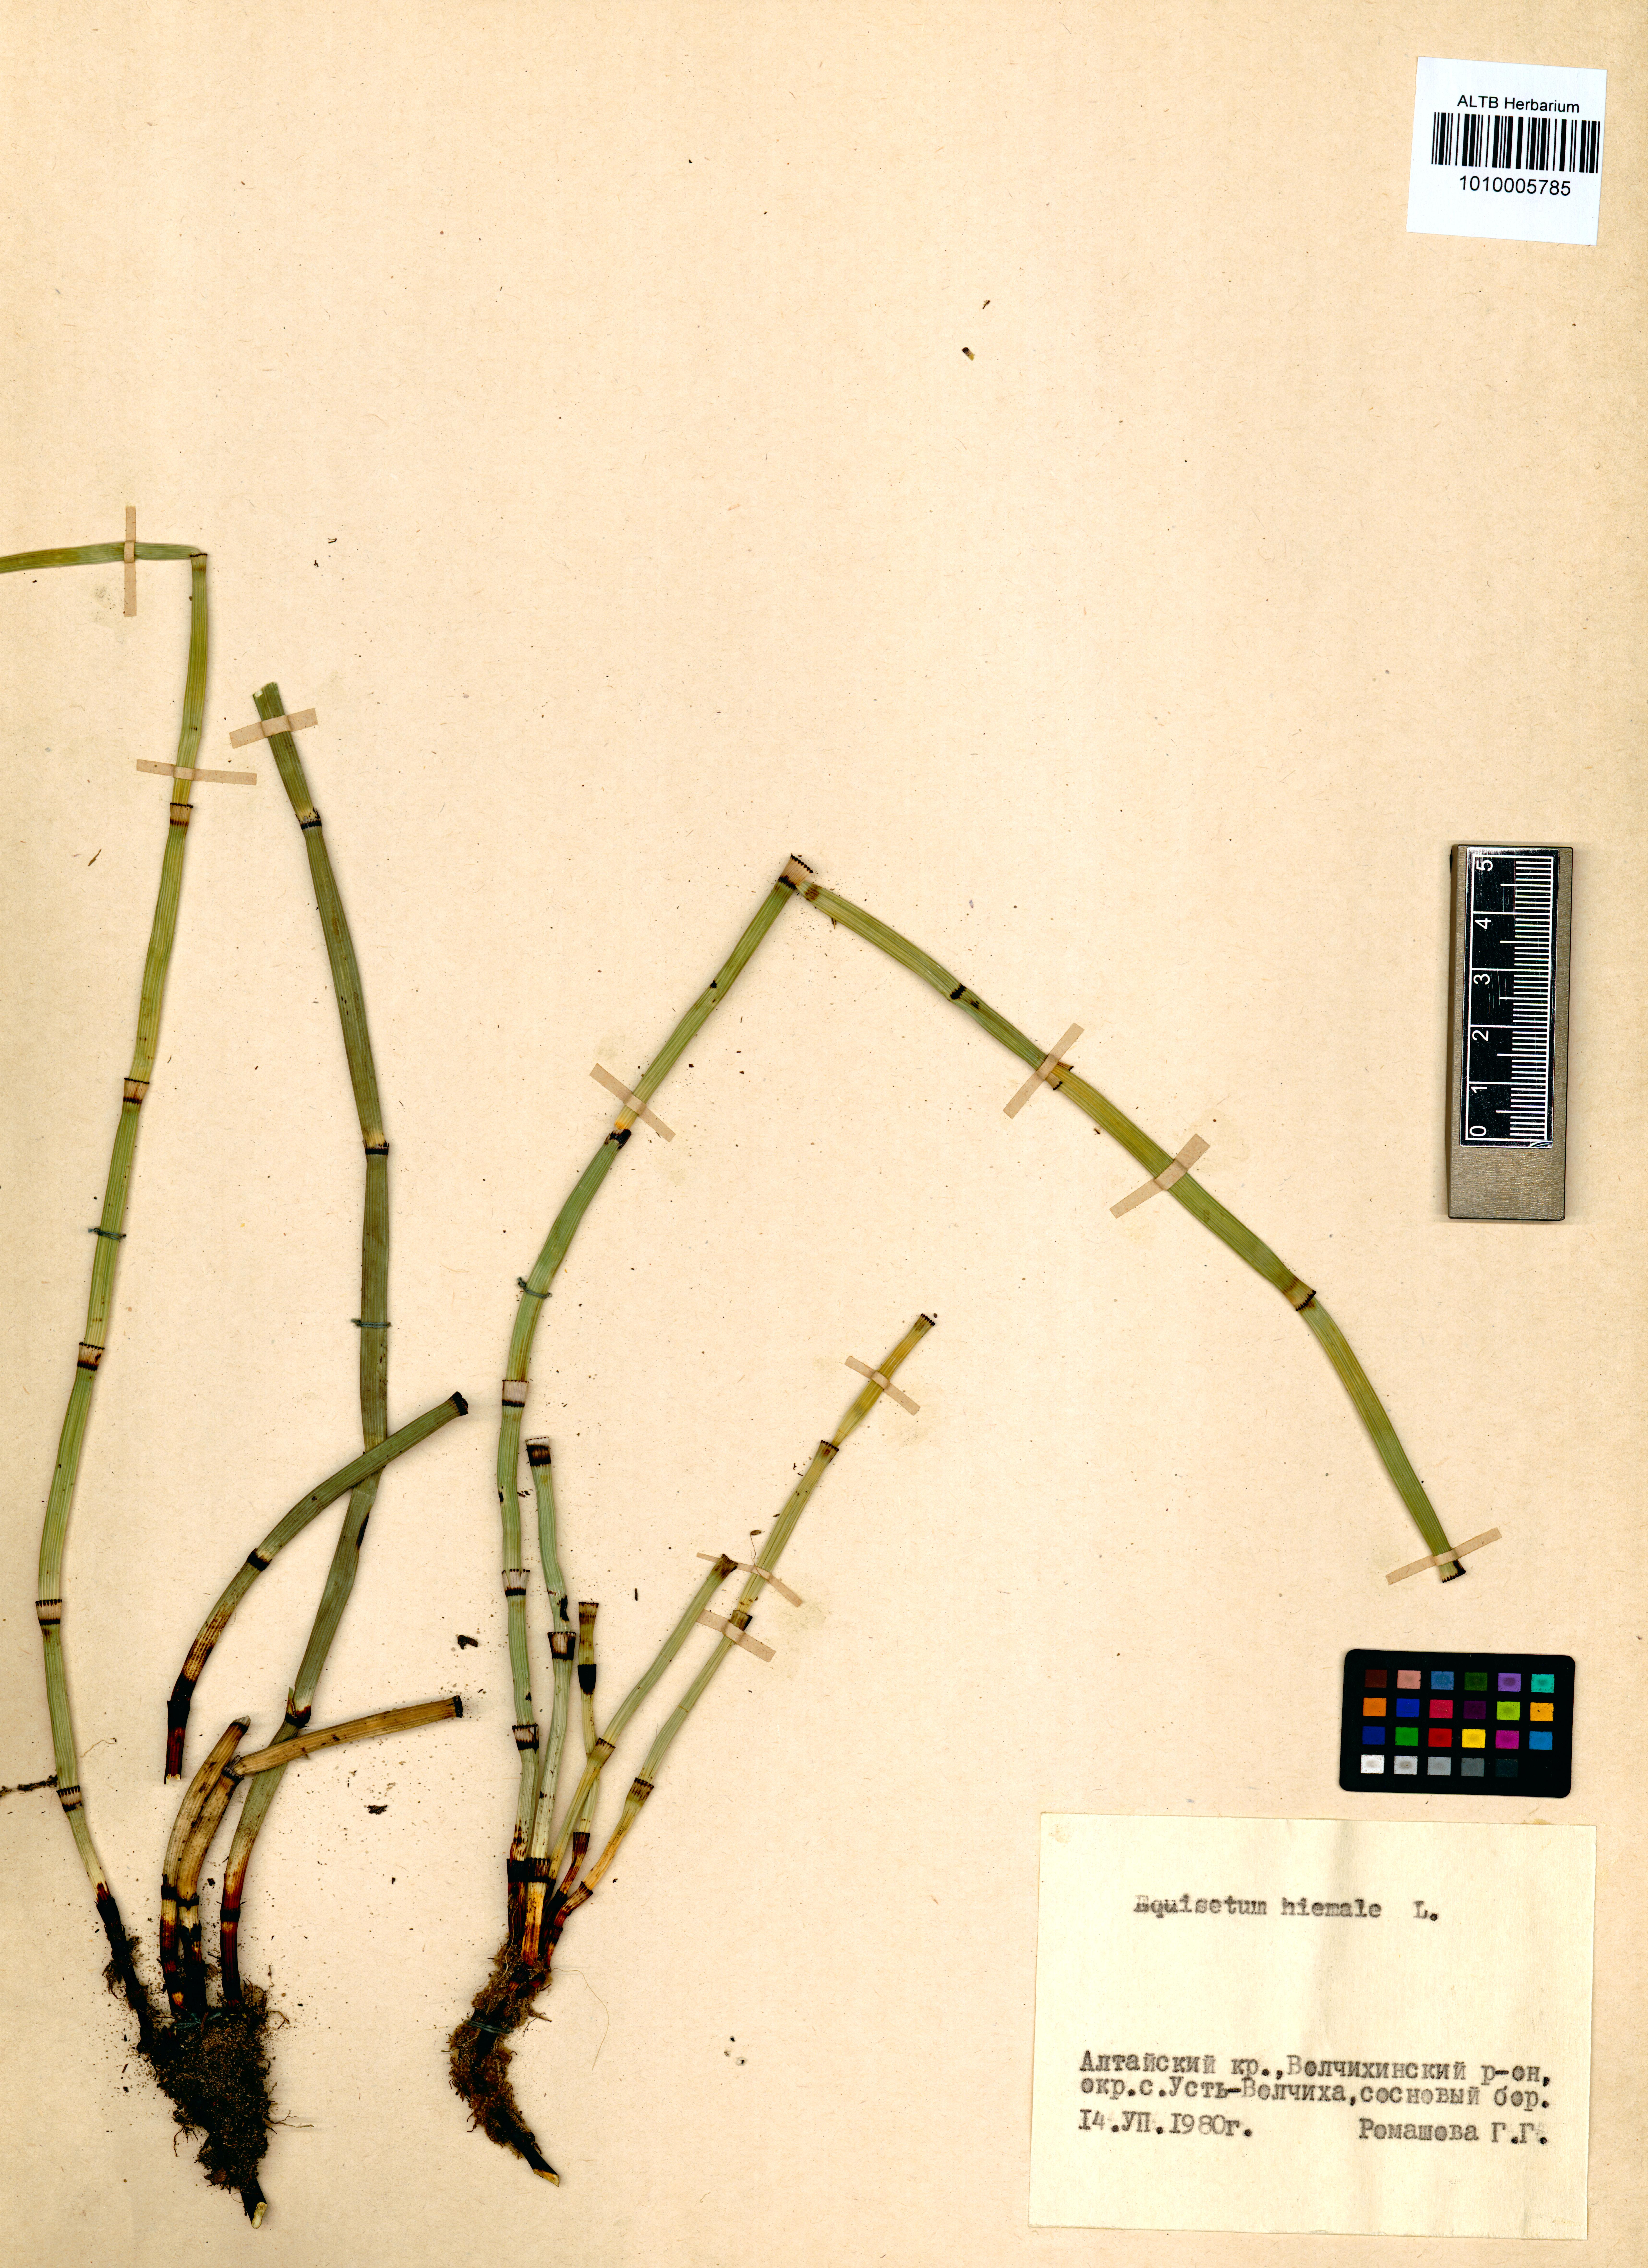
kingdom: Plantae
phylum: Tracheophyta
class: Polypodiopsida
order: Equisetales
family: Equisetaceae
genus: Equisetum
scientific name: Equisetum hyemale
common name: Rough horsetail
